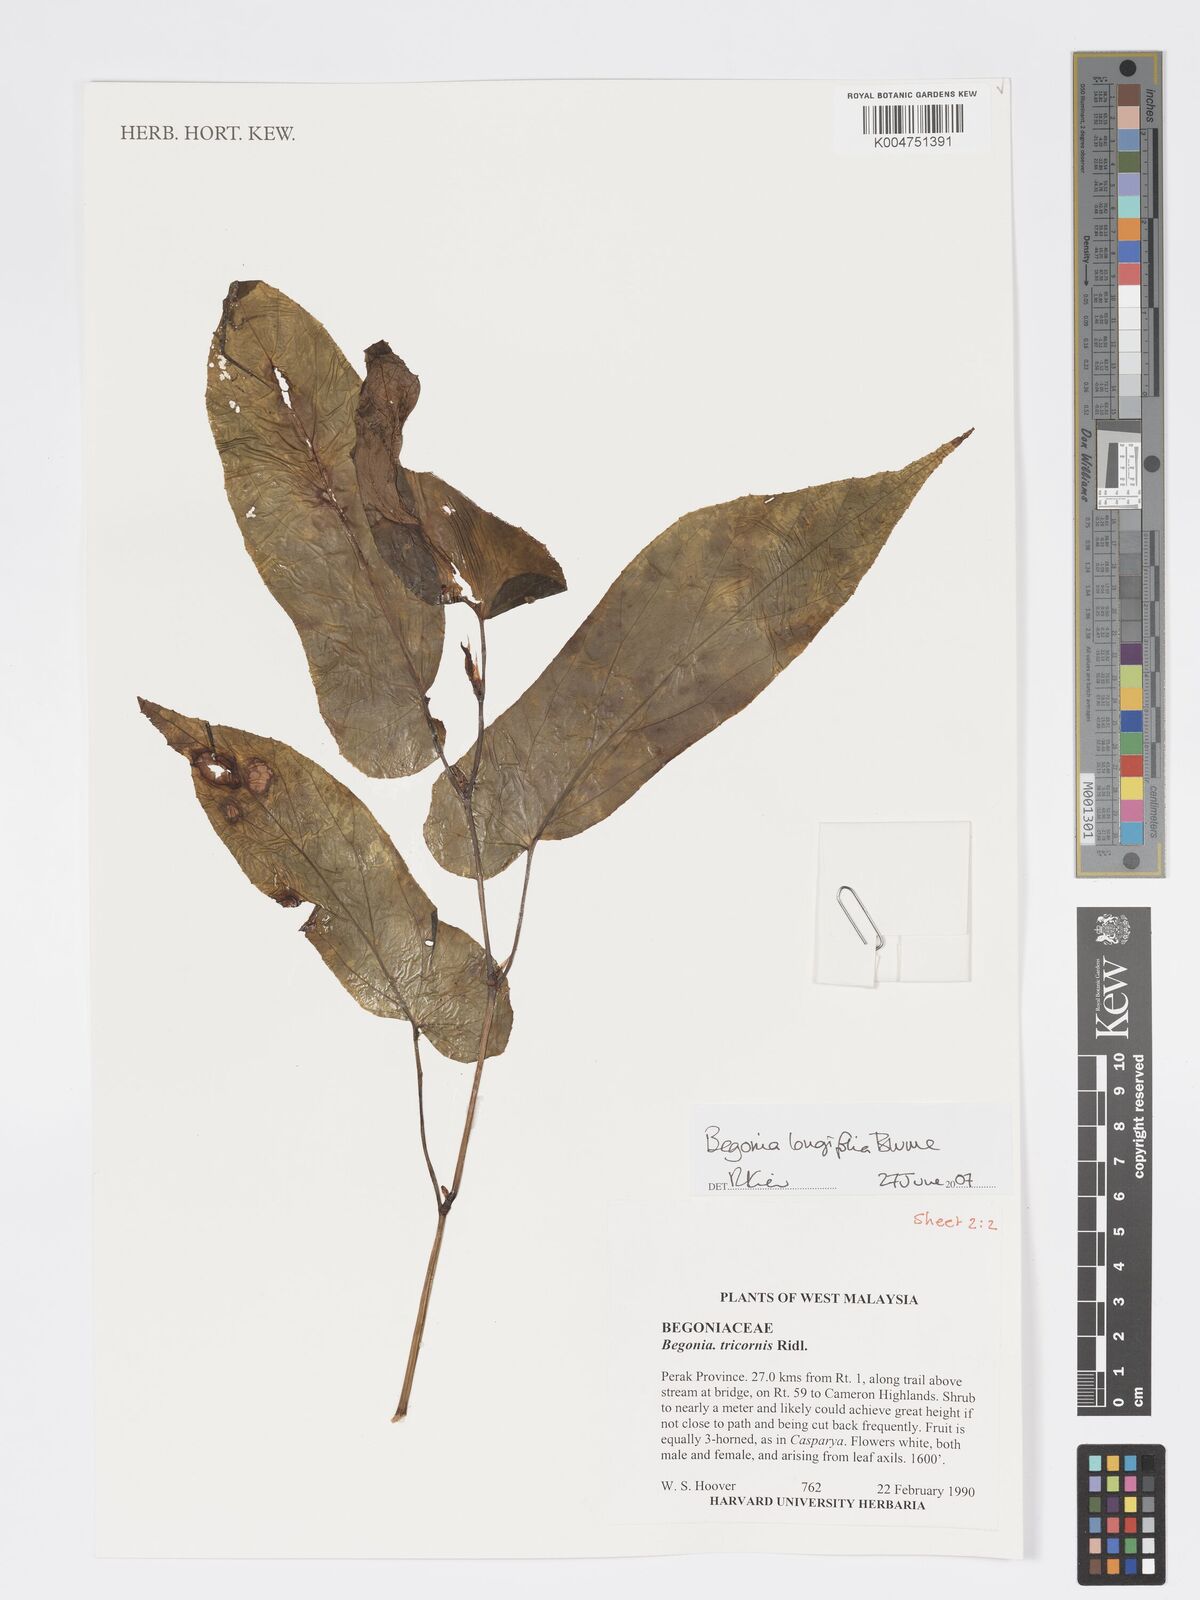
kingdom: Plantae
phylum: Tracheophyta
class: Magnoliopsida
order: Cucurbitales
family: Begoniaceae
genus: Begonia
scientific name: Begonia longifolia
